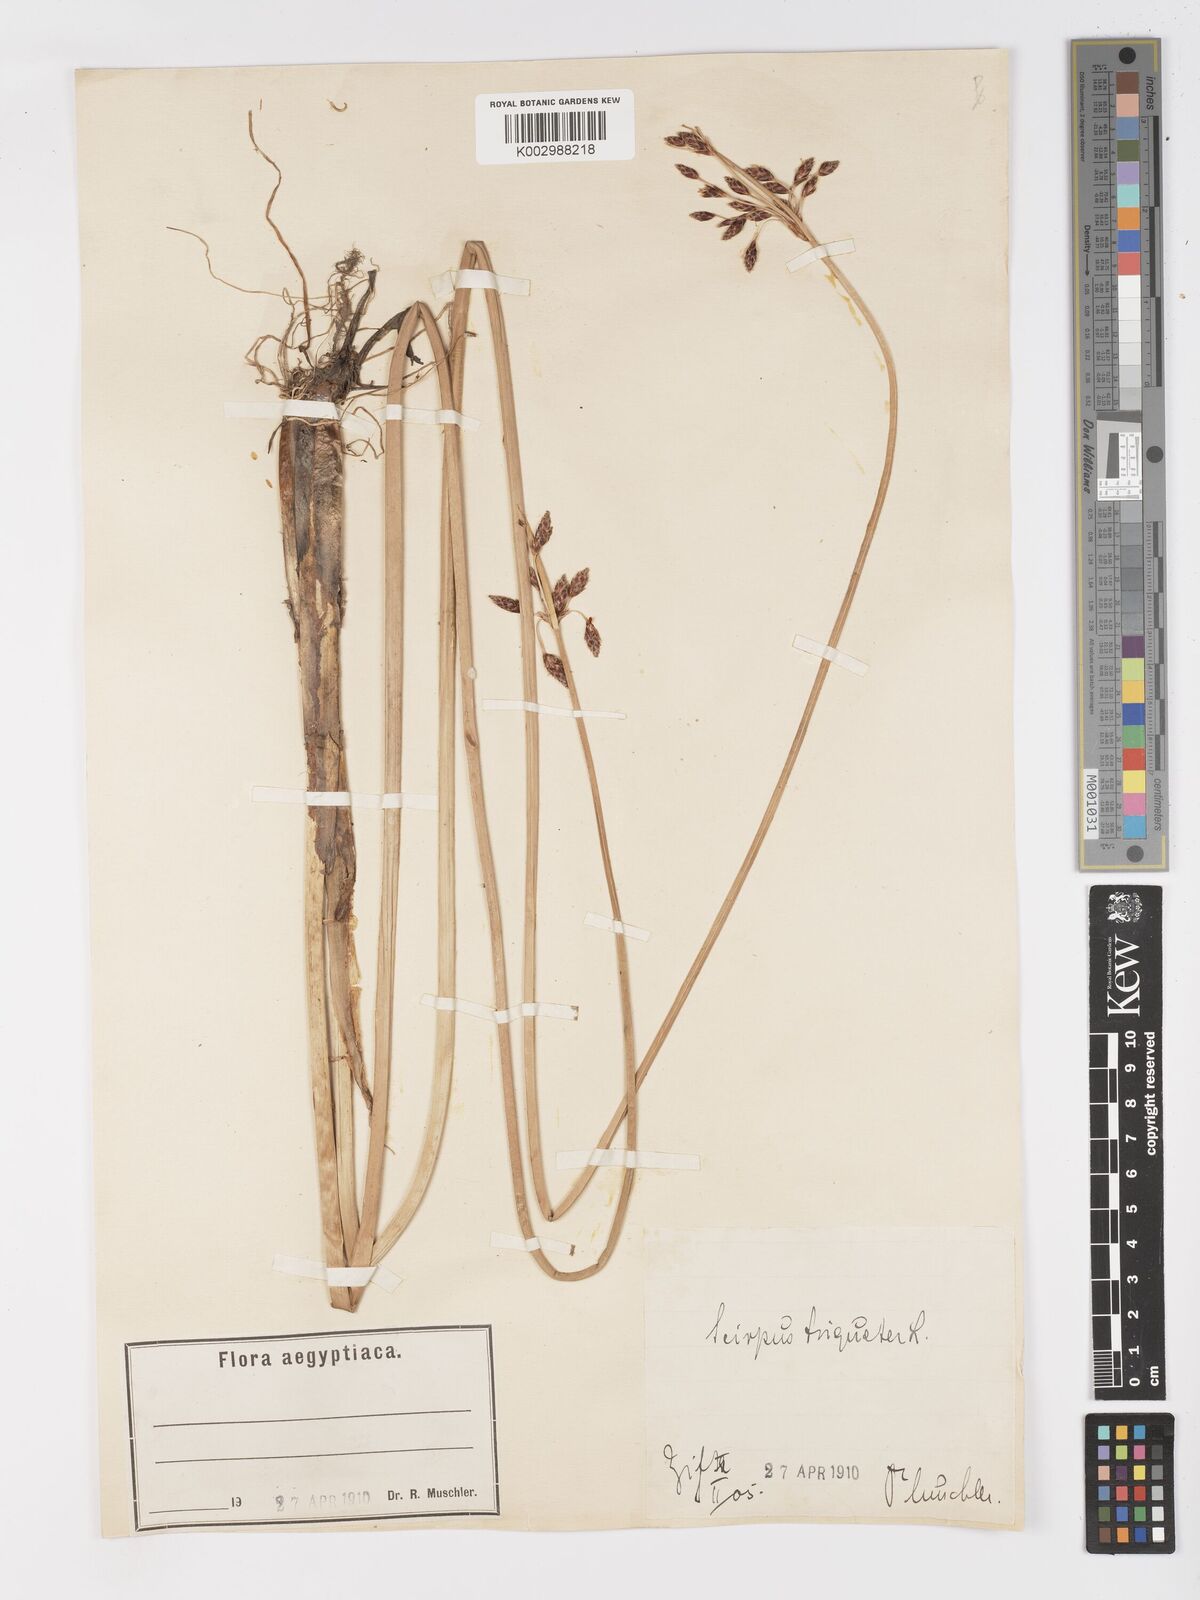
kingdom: Plantae
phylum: Tracheophyta
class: Liliopsida
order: Poales
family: Cyperaceae
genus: Schoenoplectus
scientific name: Schoenoplectus litoralis
